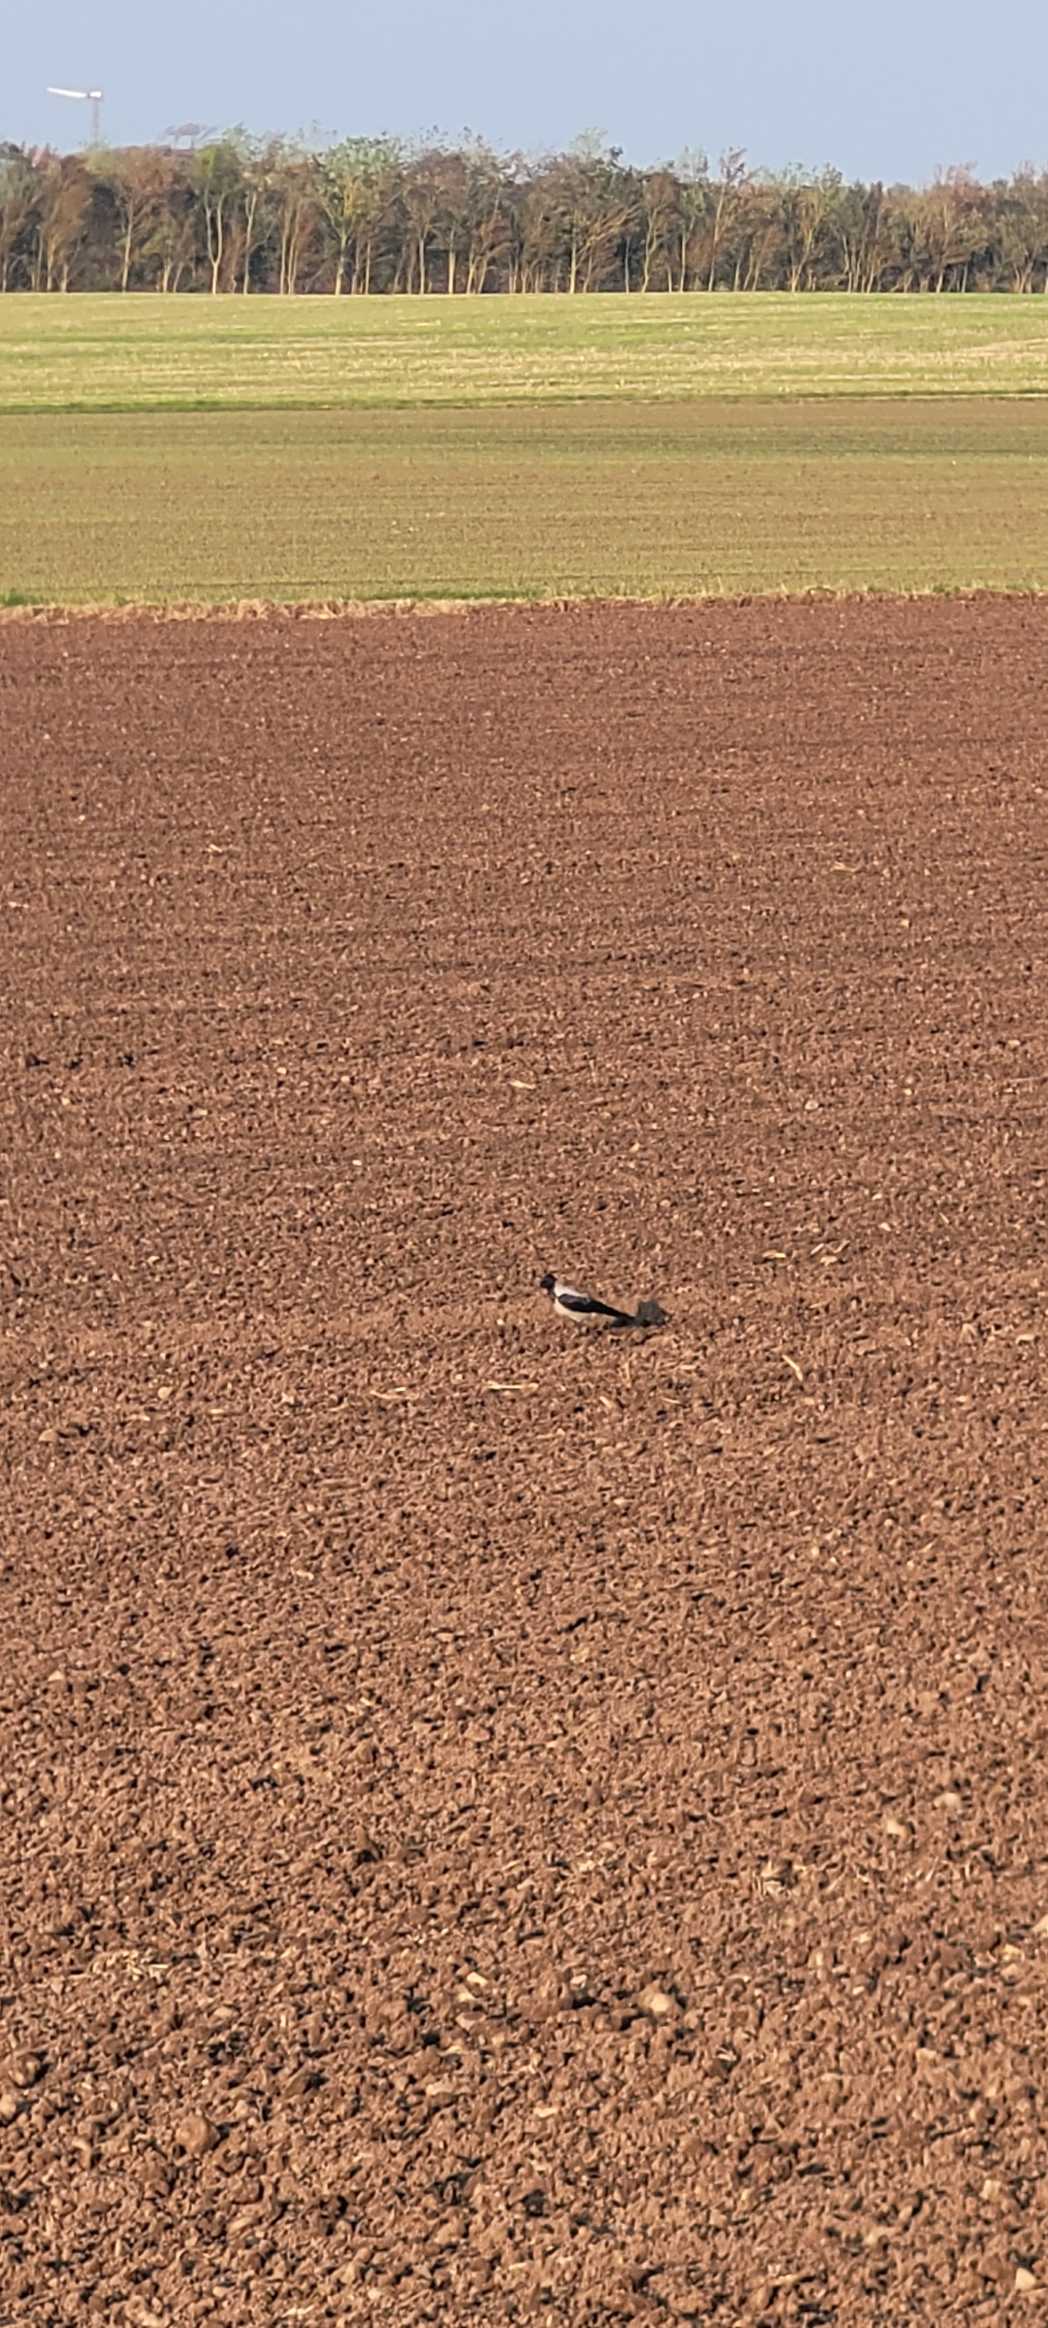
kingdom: Animalia
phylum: Chordata
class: Aves
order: Passeriformes
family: Corvidae
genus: Corvus
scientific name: Corvus cornix
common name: Gråkrage
